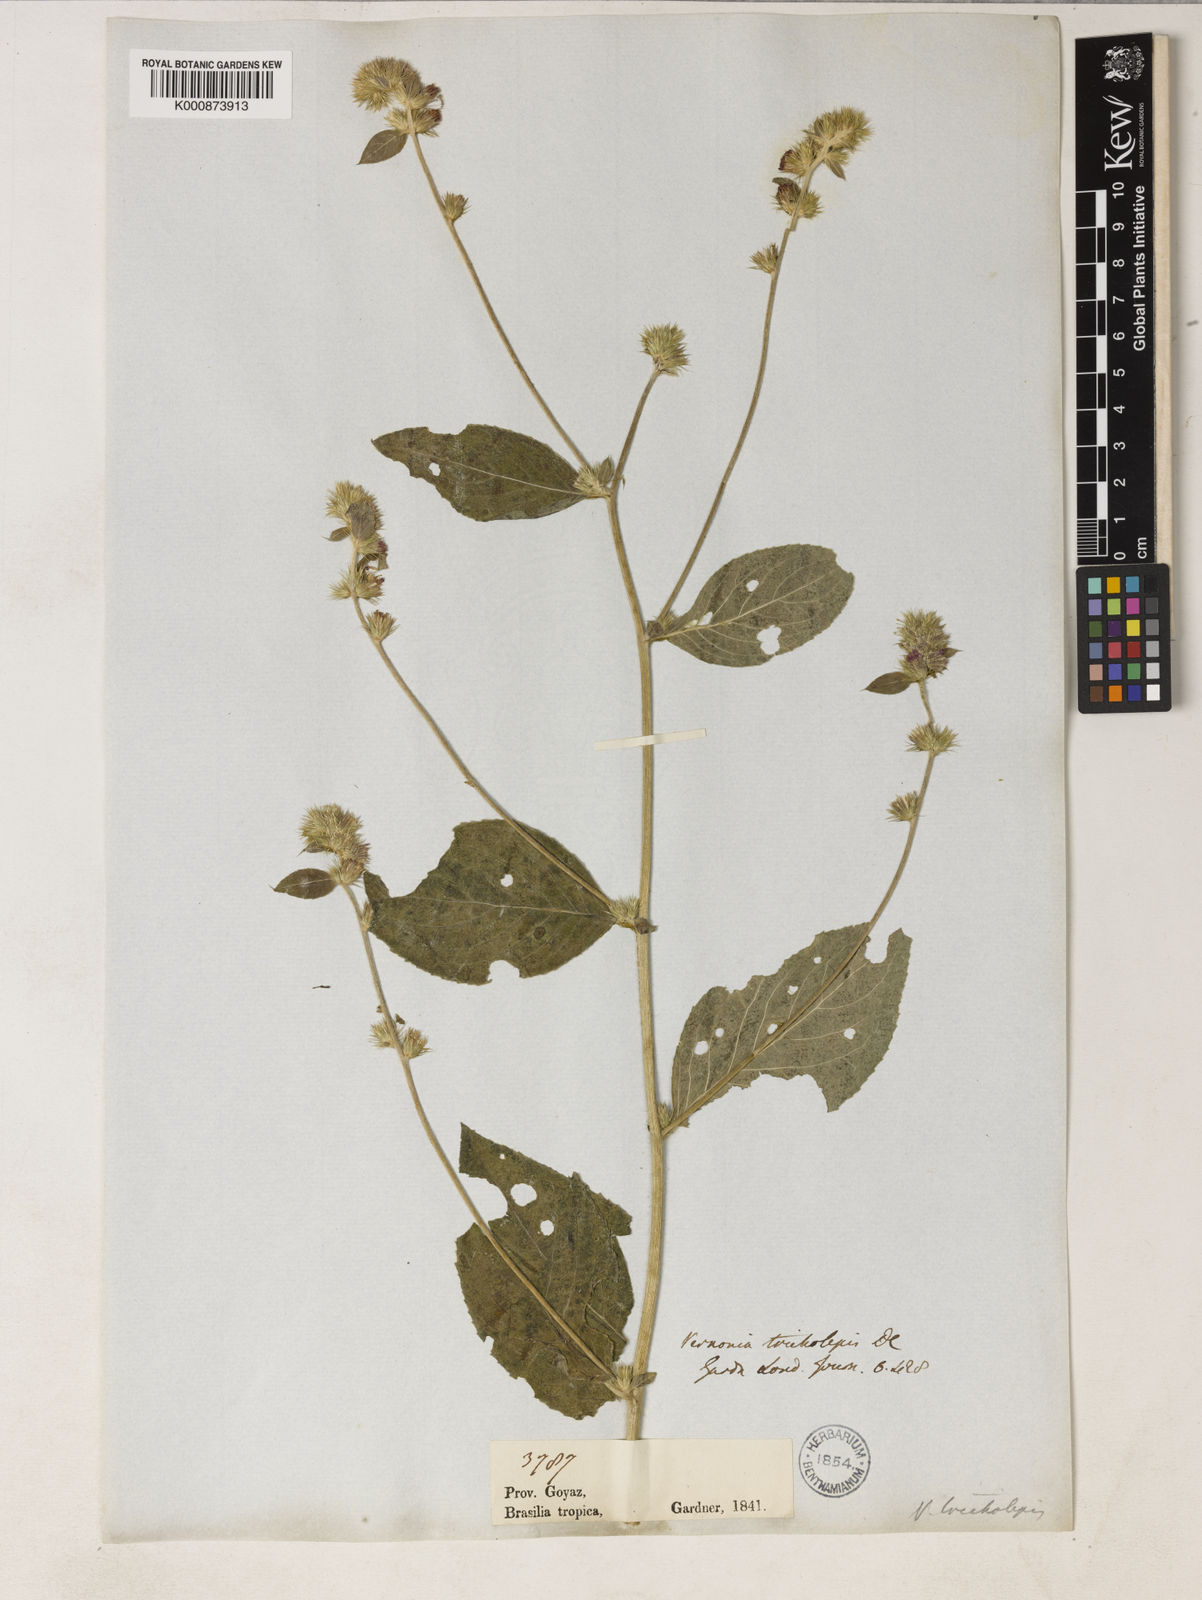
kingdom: Plantae
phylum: Tracheophyta
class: Magnoliopsida
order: Asterales
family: Asteraceae
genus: Lepidaploa
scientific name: Lepidaploa remotiflora
